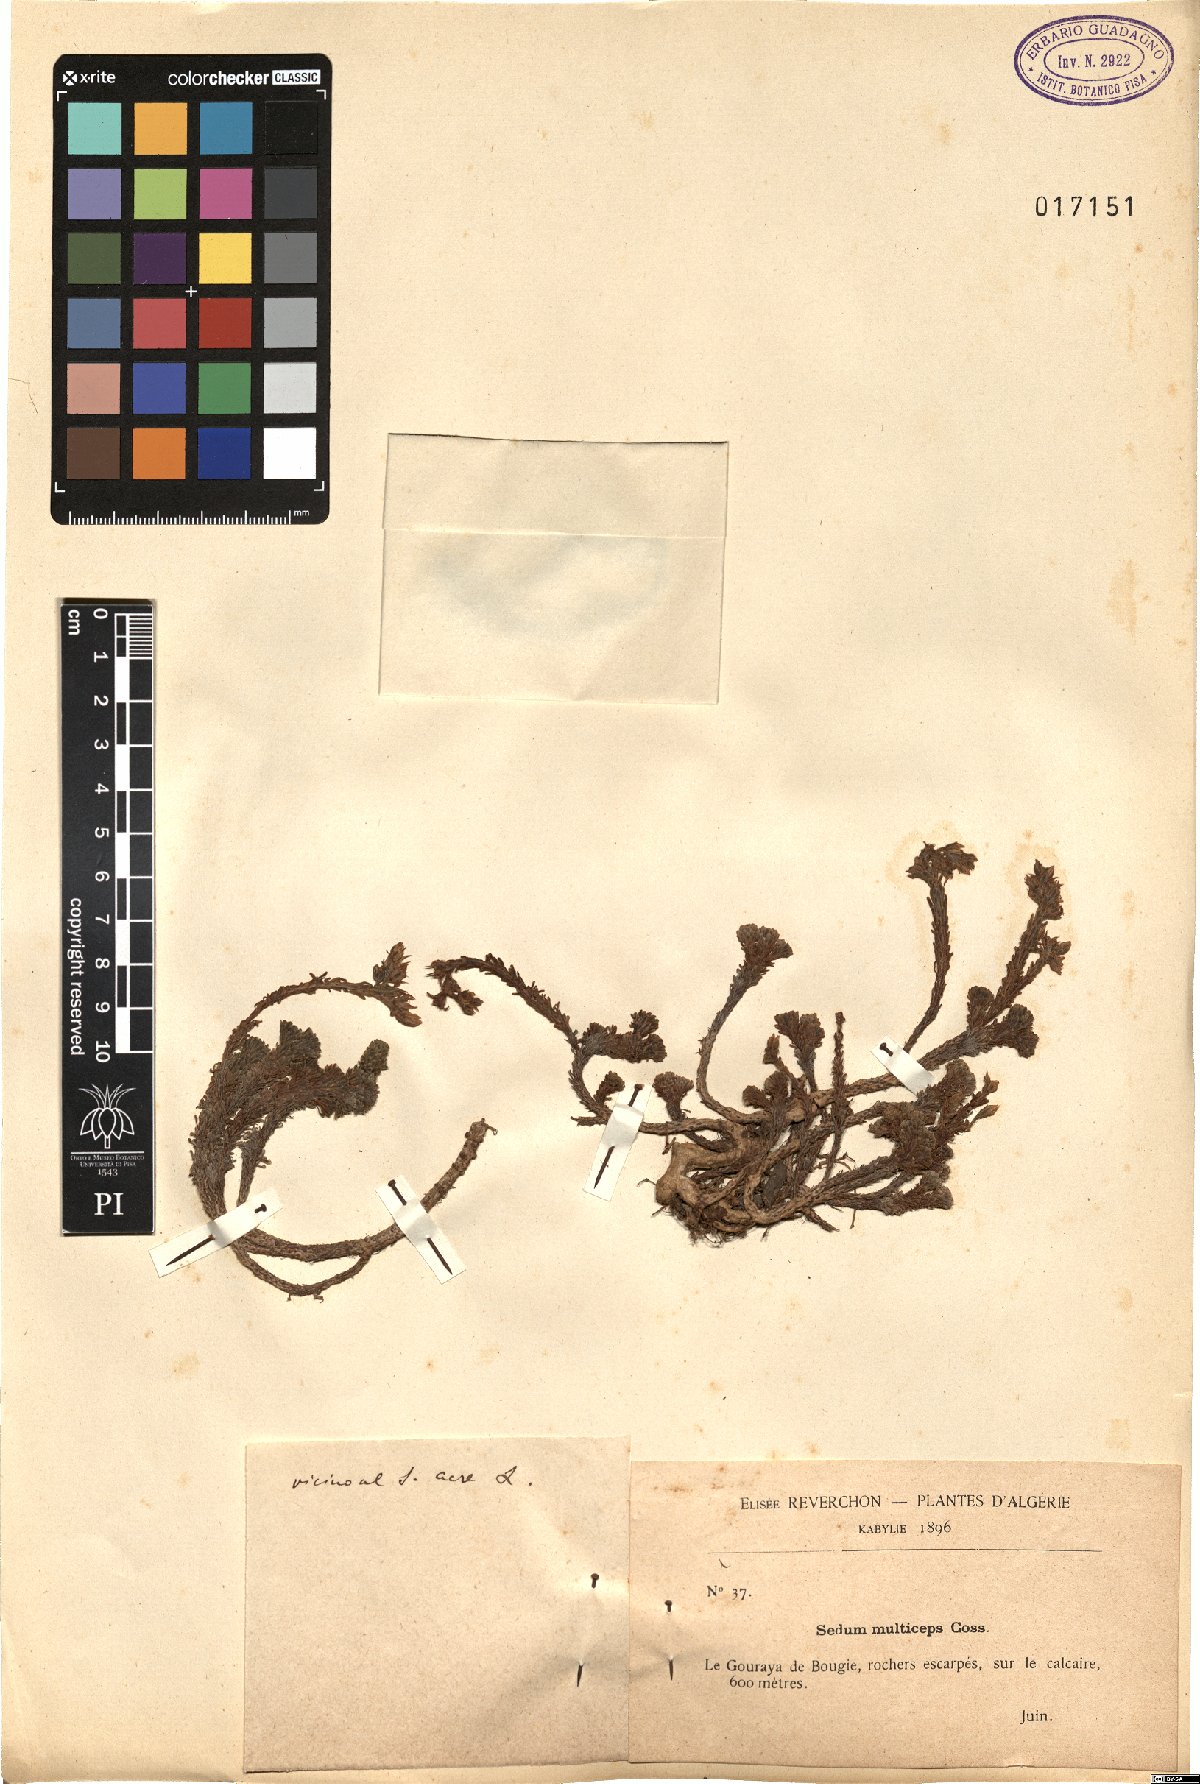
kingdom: Plantae
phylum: Tracheophyta
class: Magnoliopsida
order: Saxifragales
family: Crassulaceae
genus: Sedum
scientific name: Sedum multiceps
